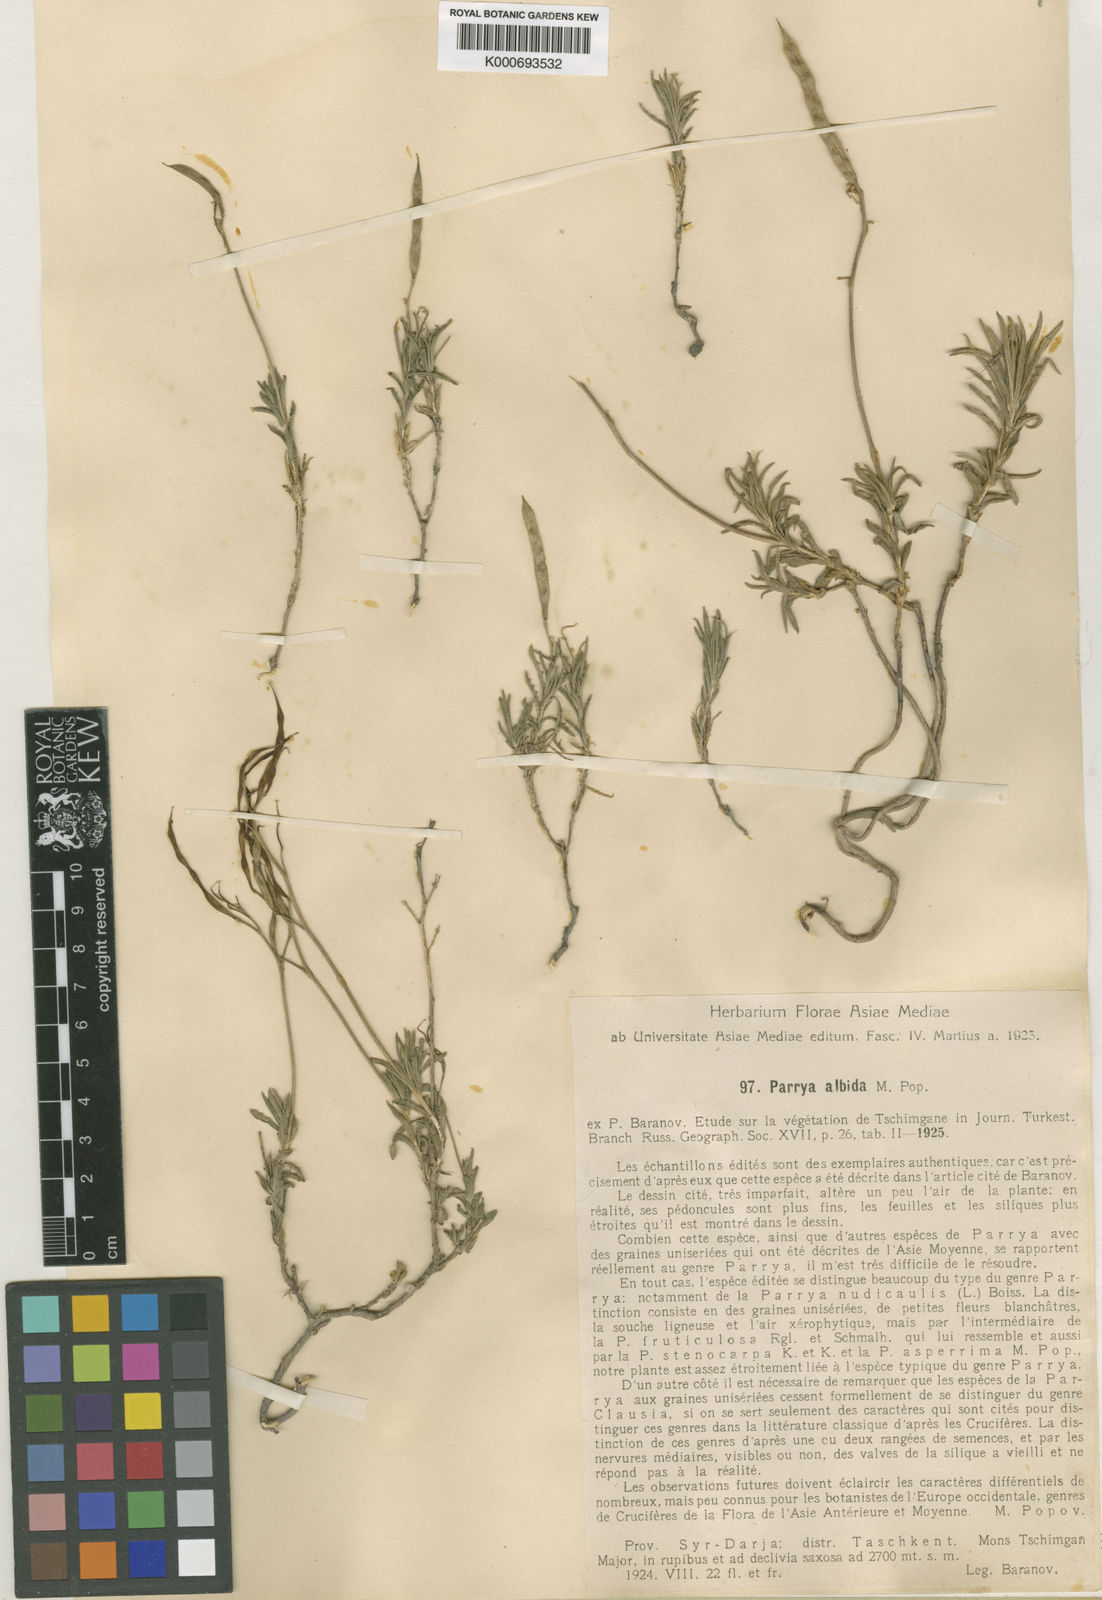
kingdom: Plantae
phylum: Tracheophyta
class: Magnoliopsida
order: Brassicales
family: Brassicaceae
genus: Parrya
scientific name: Parrya albida
